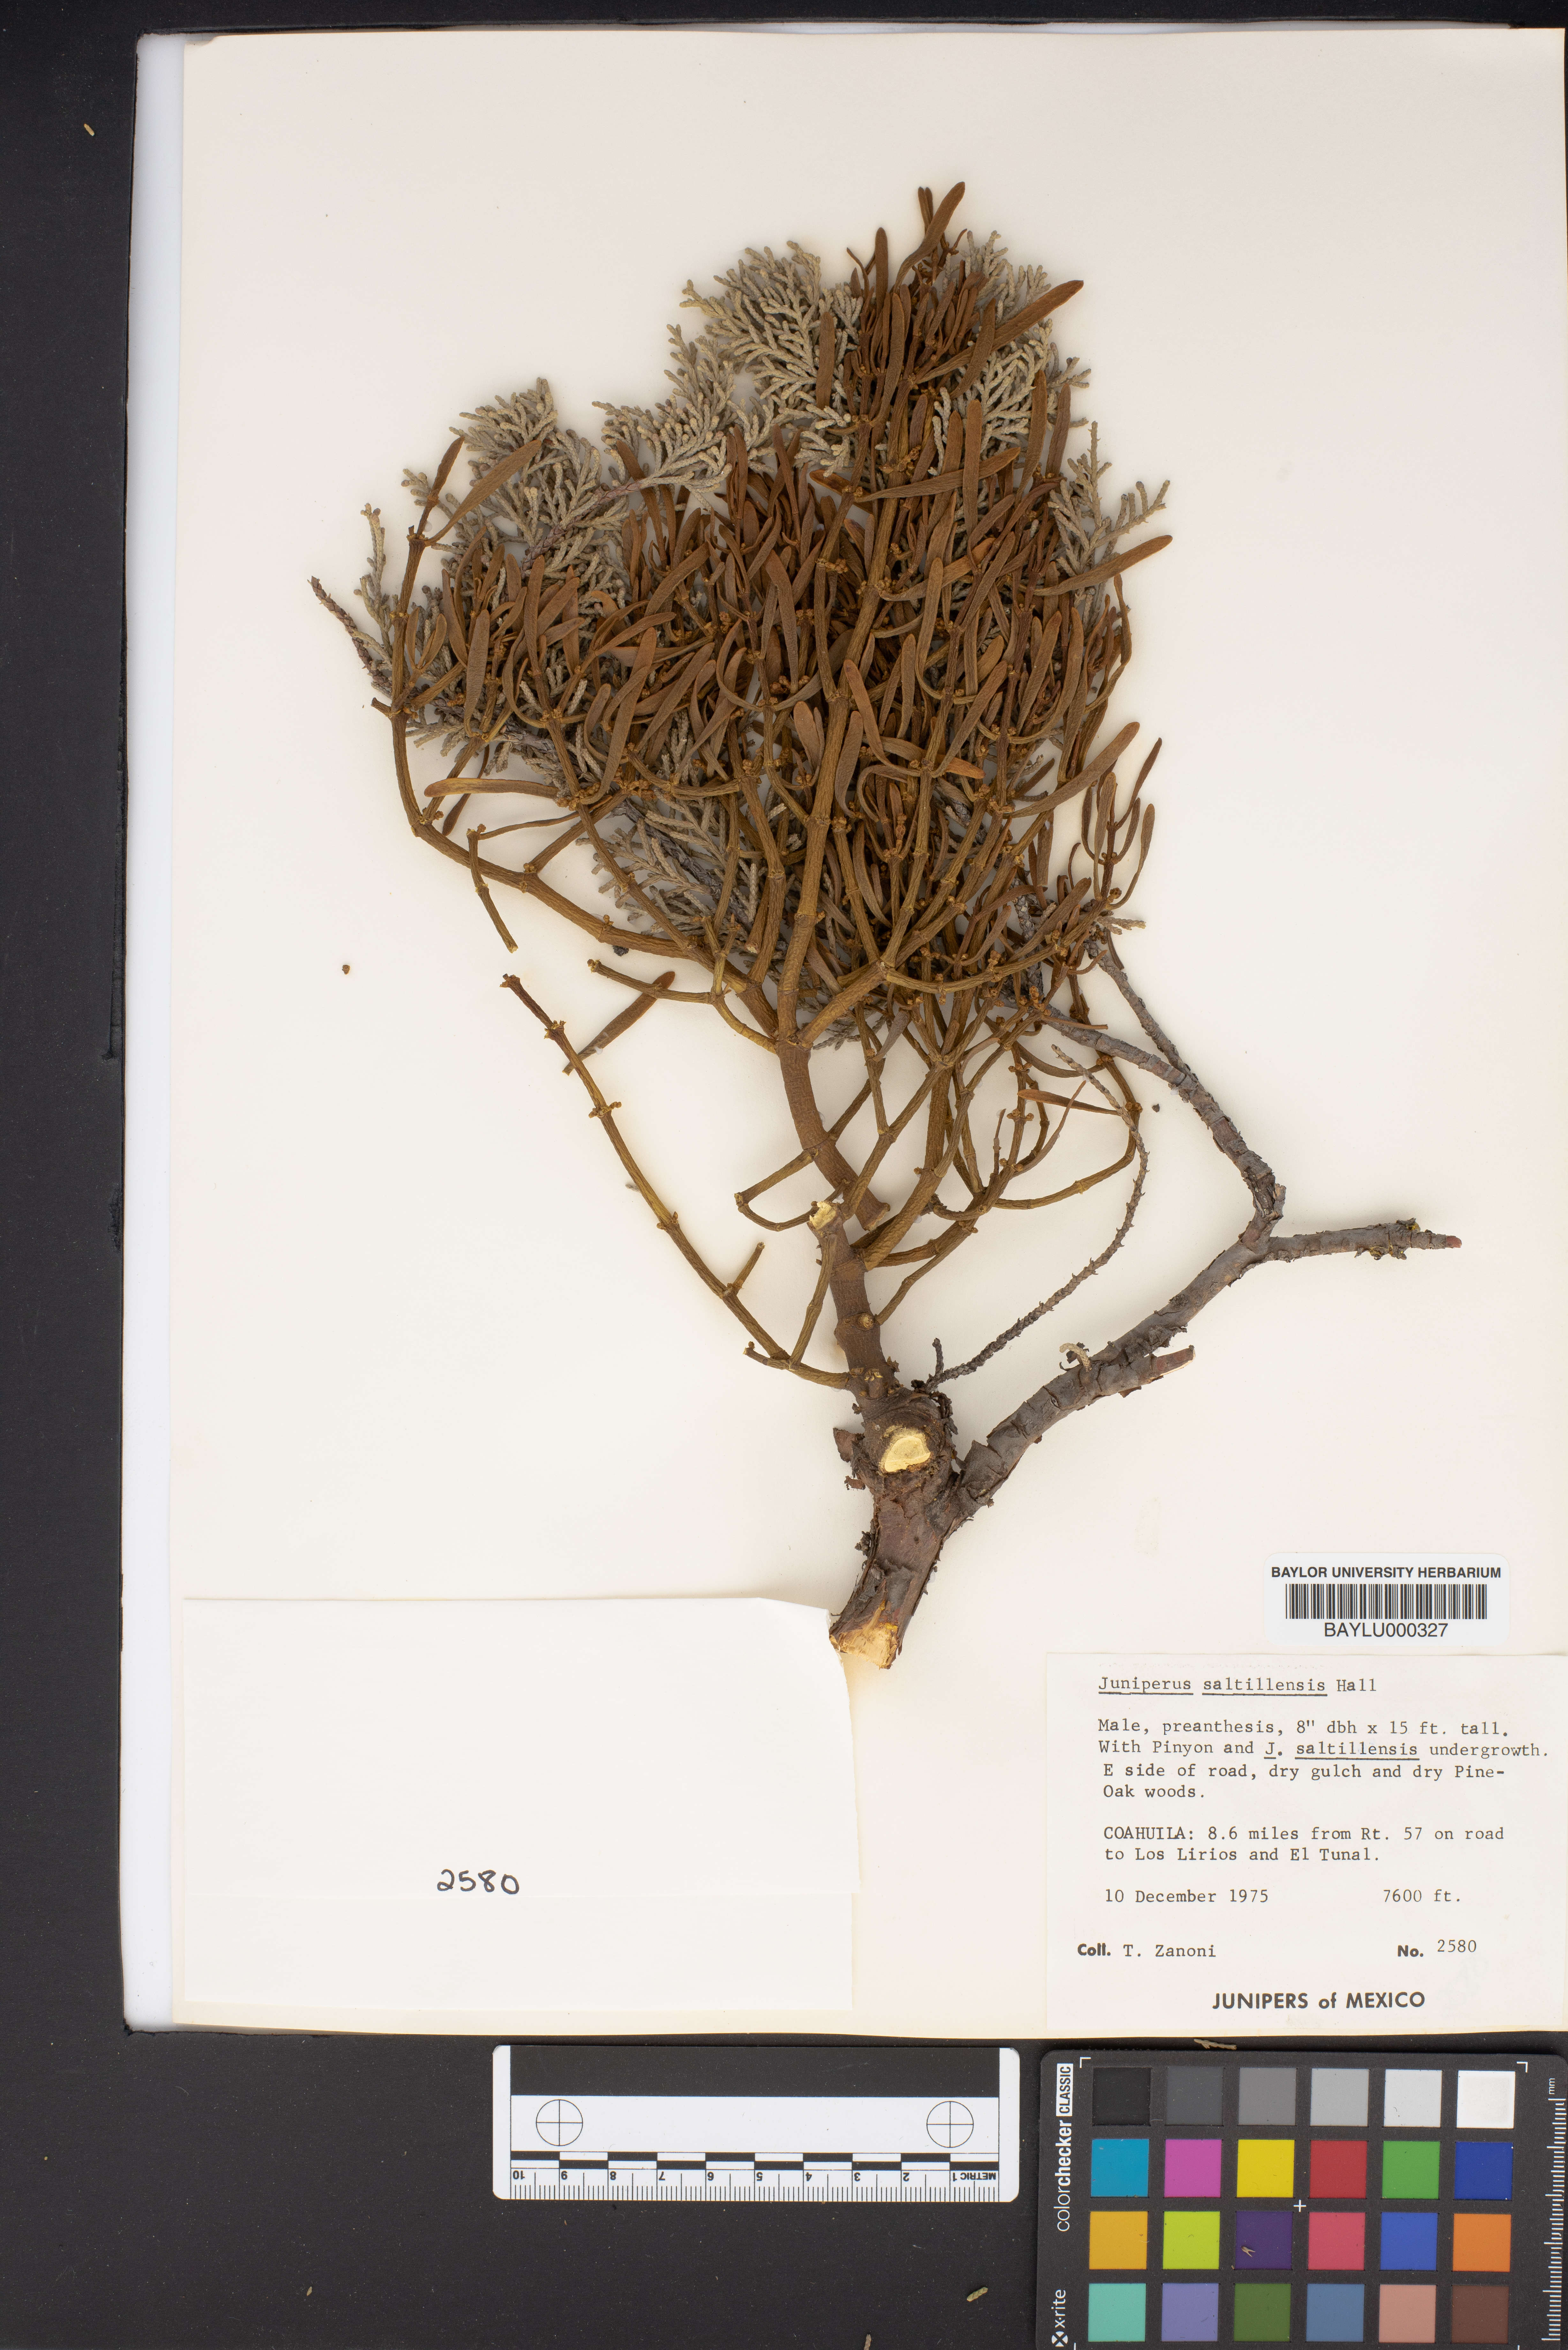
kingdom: Plantae
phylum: Tracheophyta
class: Pinopsida
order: Pinales
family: Cupressaceae
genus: Juniperus
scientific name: Juniperus saltillensis
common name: Saltillo juniper
